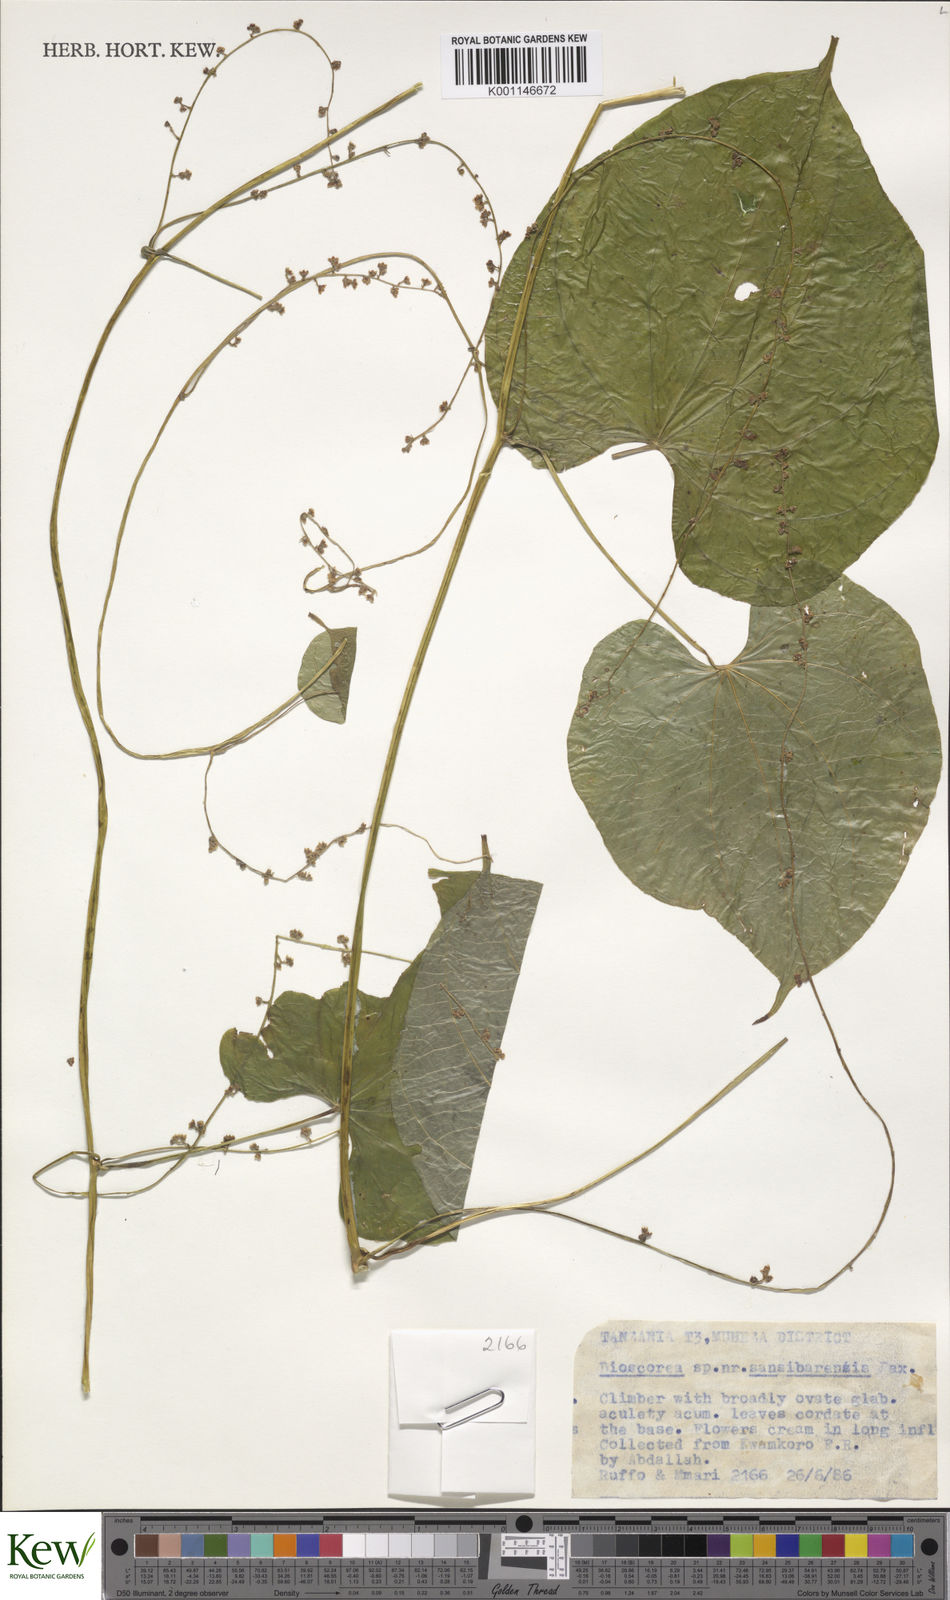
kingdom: Plantae
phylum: Tracheophyta
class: Liliopsida
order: Dioscoreales
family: Dioscoreaceae
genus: Dioscorea
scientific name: Dioscorea sansibarensis
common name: Zanzibar yam
